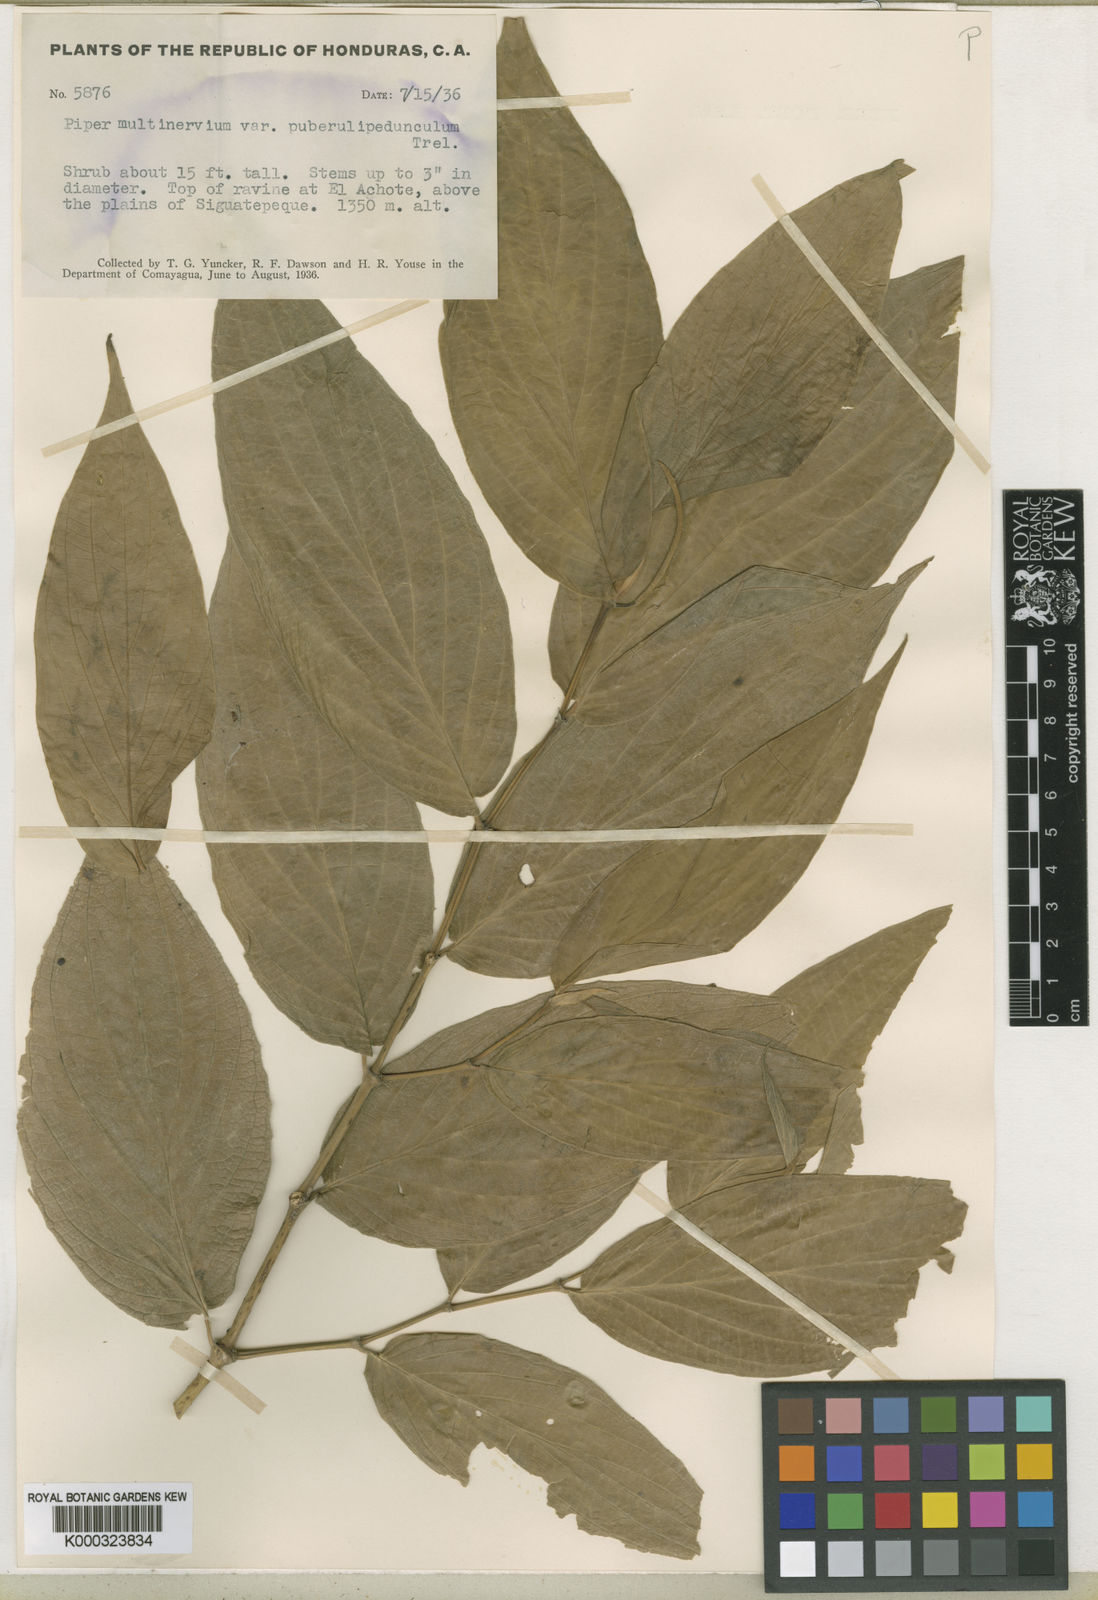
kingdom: Plantae
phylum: Tracheophyta
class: Magnoliopsida
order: Piperales
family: Piperaceae
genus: Piper
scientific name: Piper aduncum
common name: Spiked pepper
